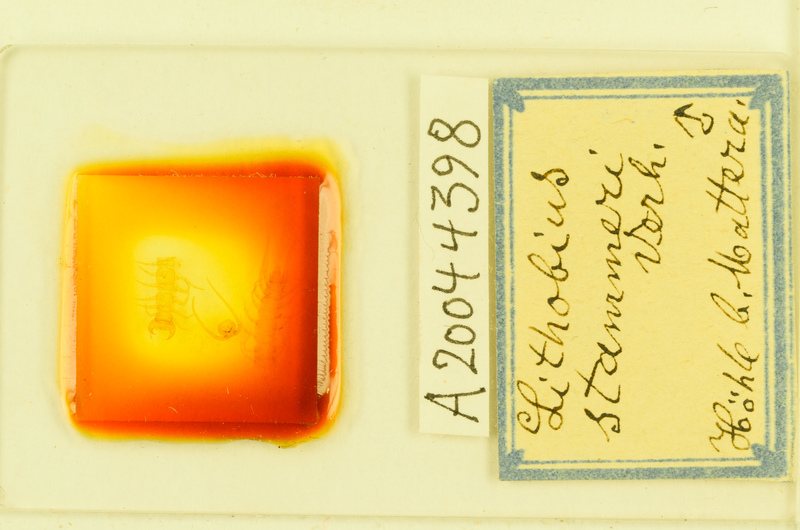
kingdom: Animalia
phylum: Arthropoda
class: Chilopoda
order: Lithobiomorpha
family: Lithobiidae
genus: Lithobius
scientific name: Lithobius stammeri
